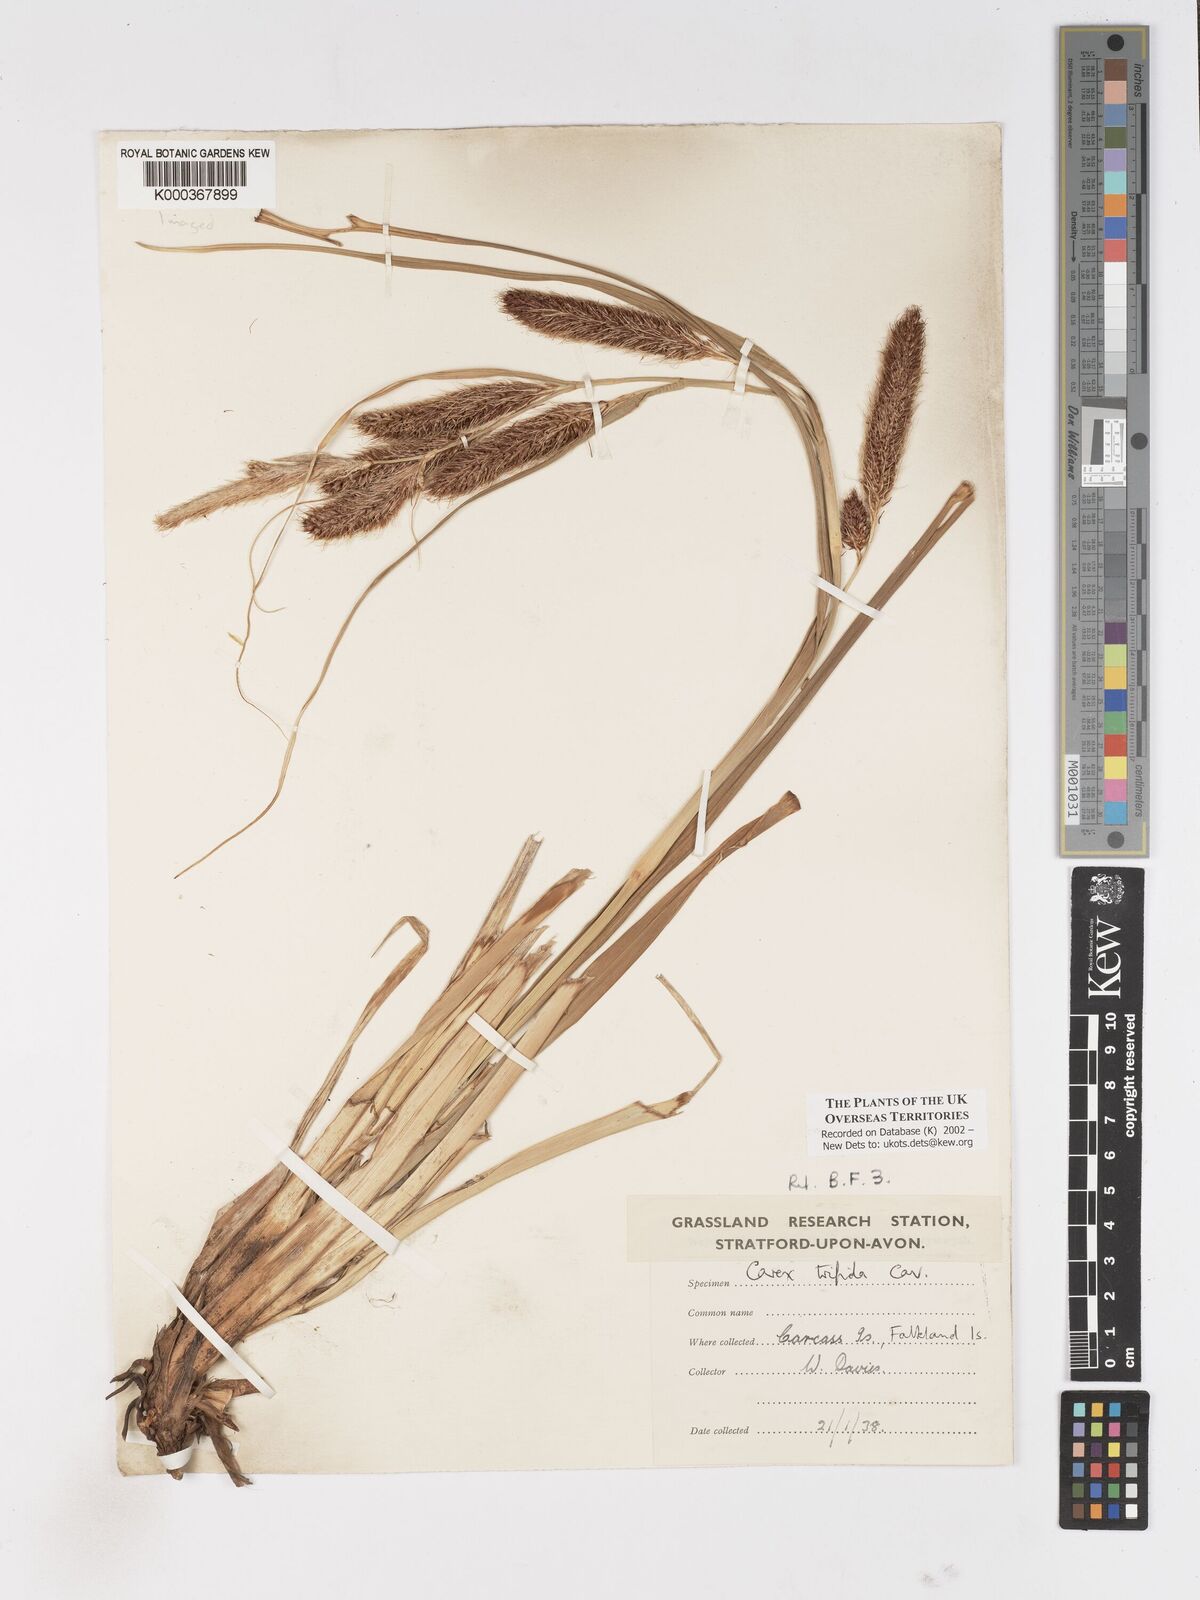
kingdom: Plantae
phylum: Tracheophyta
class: Liliopsida
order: Poales
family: Cyperaceae
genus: Carex
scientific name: Carex trifida
